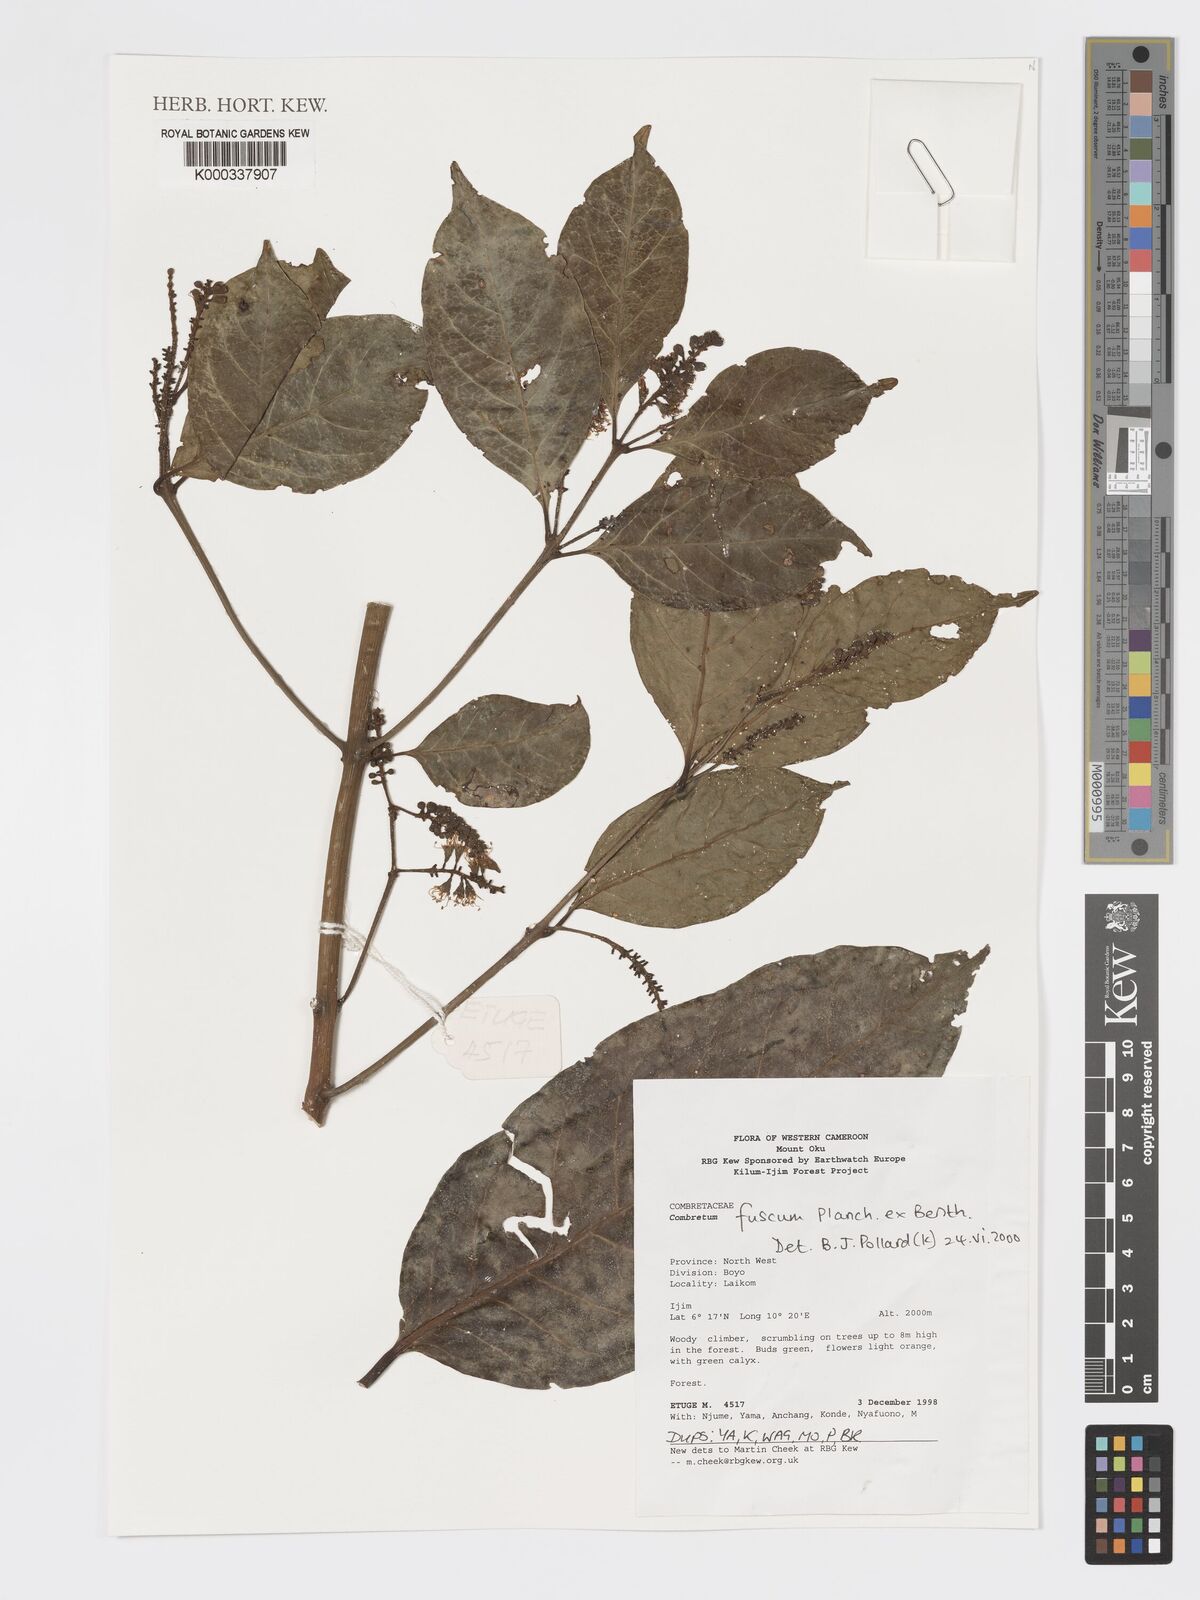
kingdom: Plantae
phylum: Tracheophyta
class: Magnoliopsida
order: Myrtales
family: Combretaceae
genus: Combretum
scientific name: Combretum fuscum
